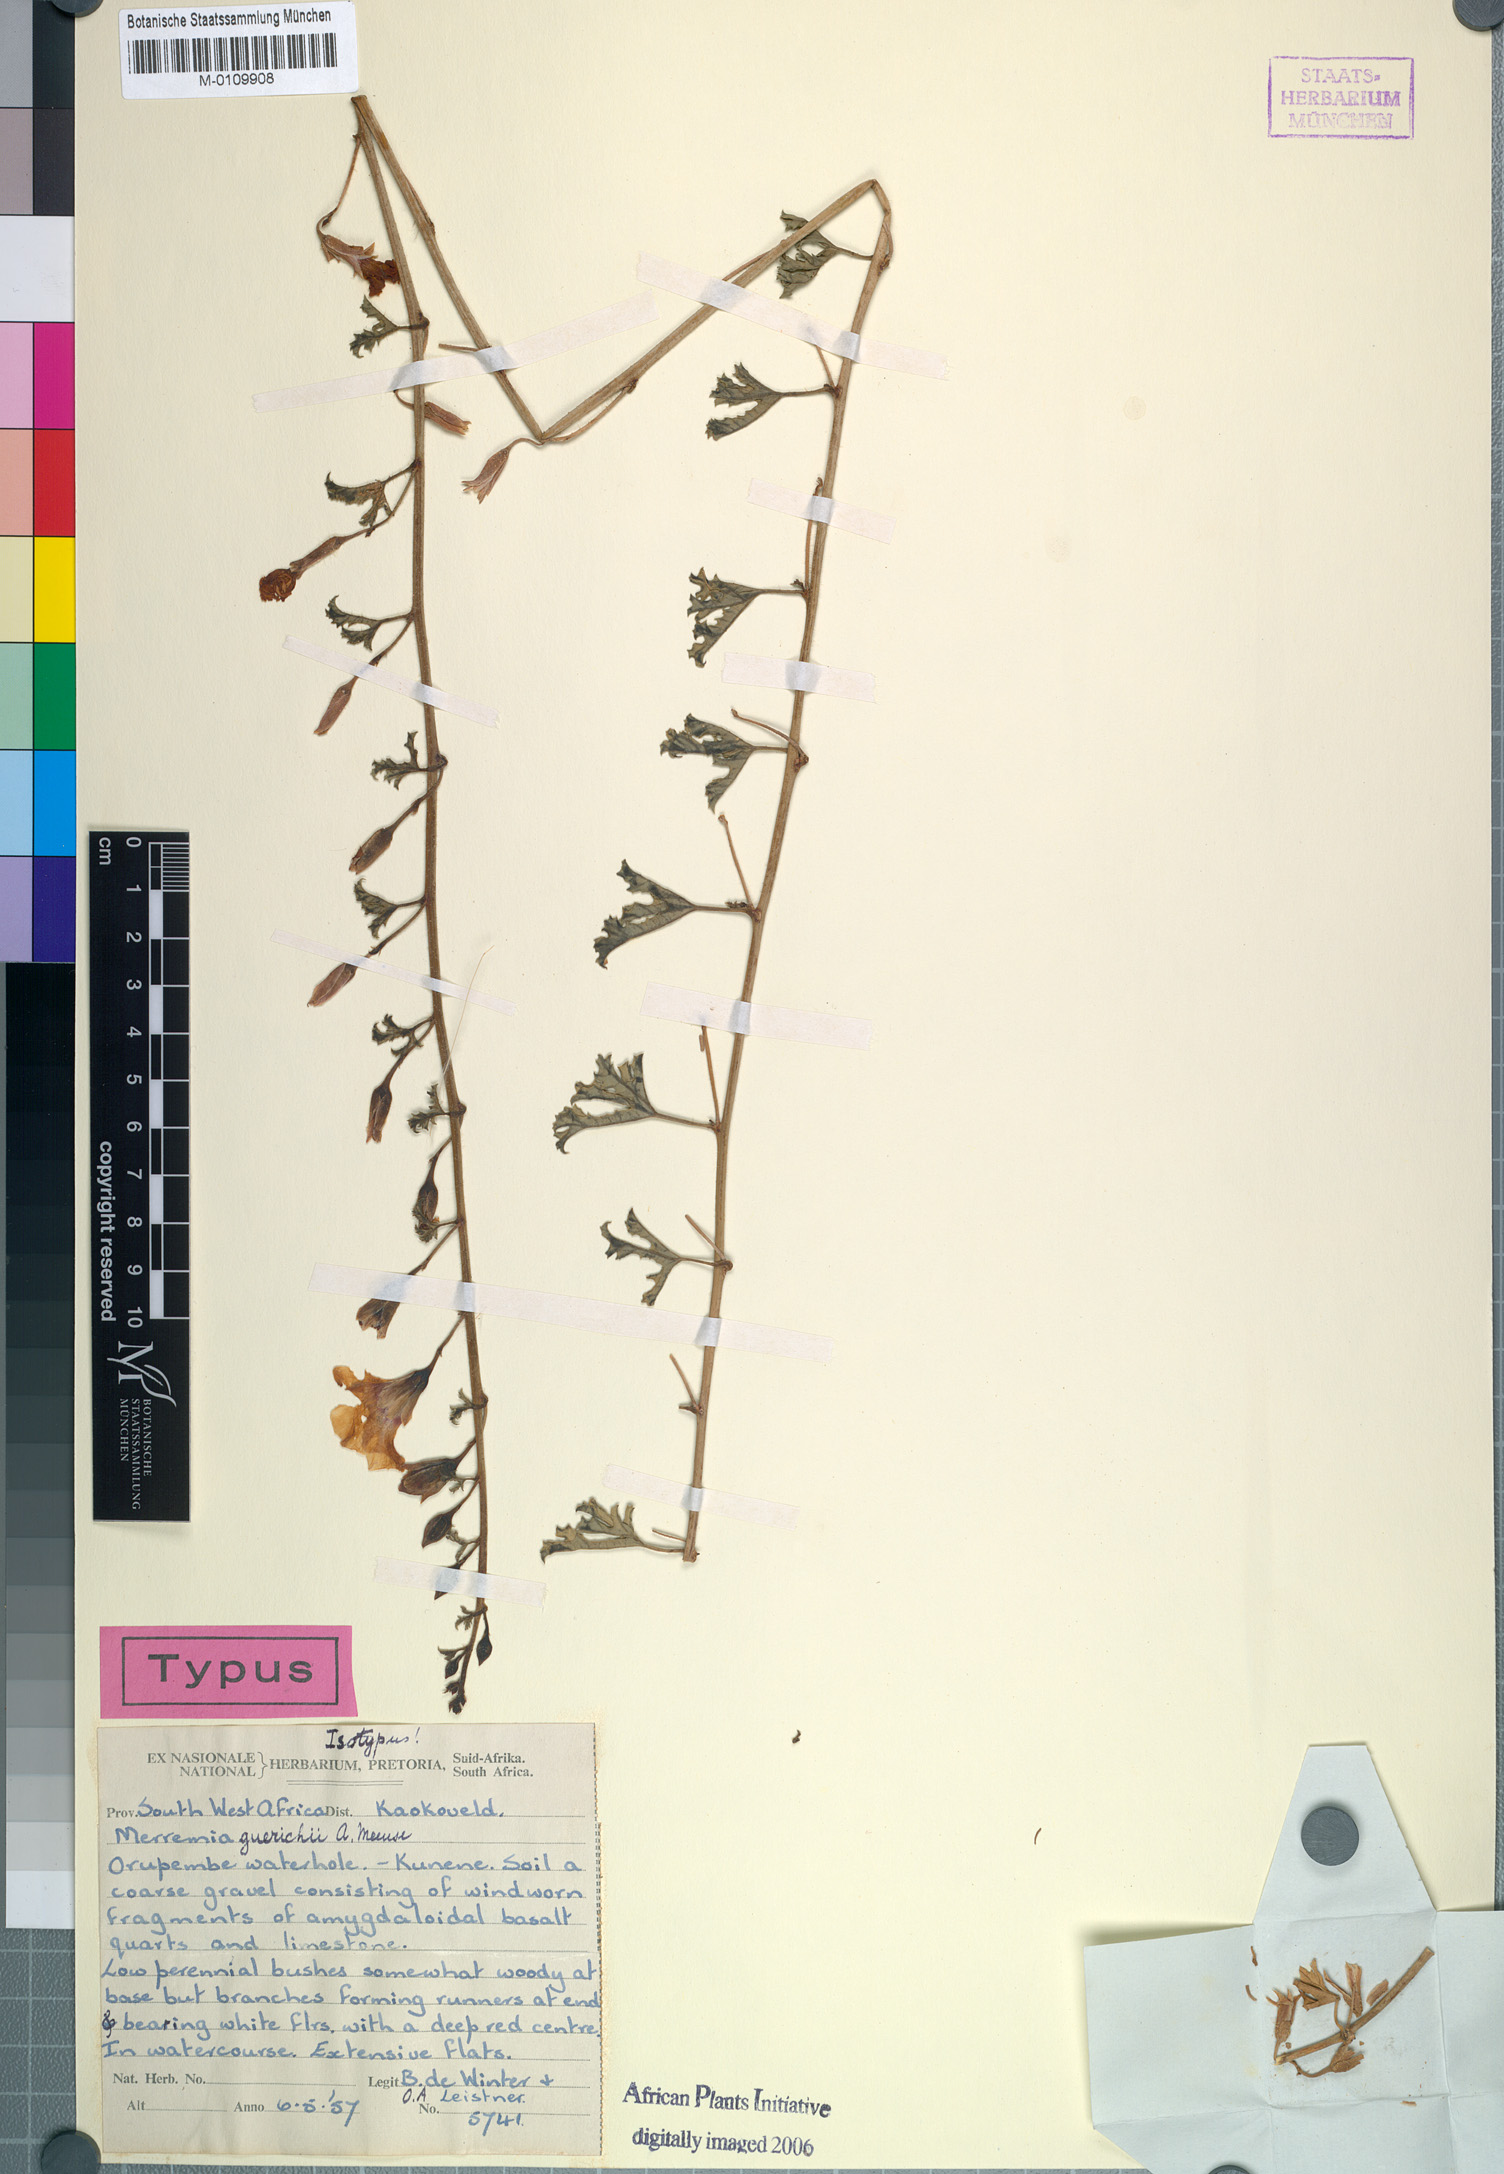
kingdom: Plantae
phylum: Tracheophyta
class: Magnoliopsida
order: Solanales
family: Convolvulaceae
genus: Distimake
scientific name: Distimake guerichii
